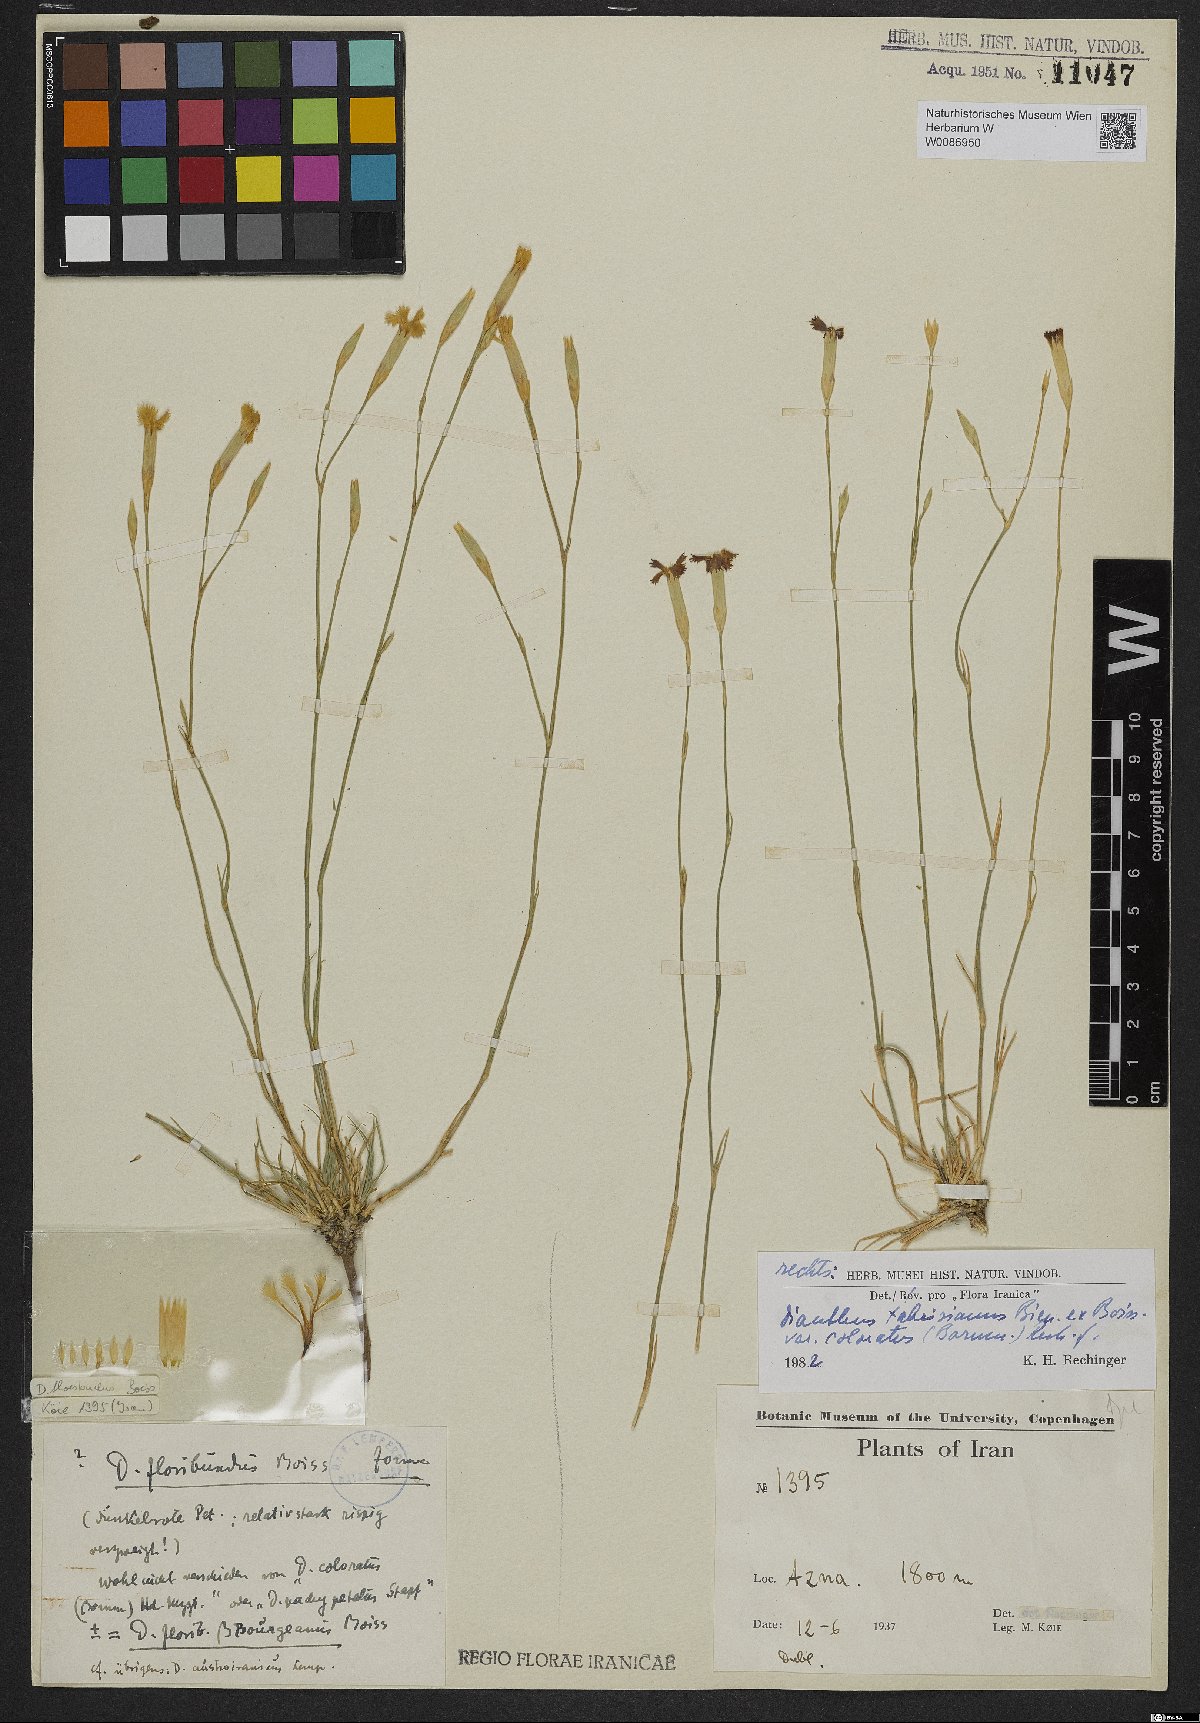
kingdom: Plantae
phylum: Tracheophyta
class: Magnoliopsida
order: Caryophyllales
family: Caryophyllaceae
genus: Dianthus
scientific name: Dianthus tabrisianus
